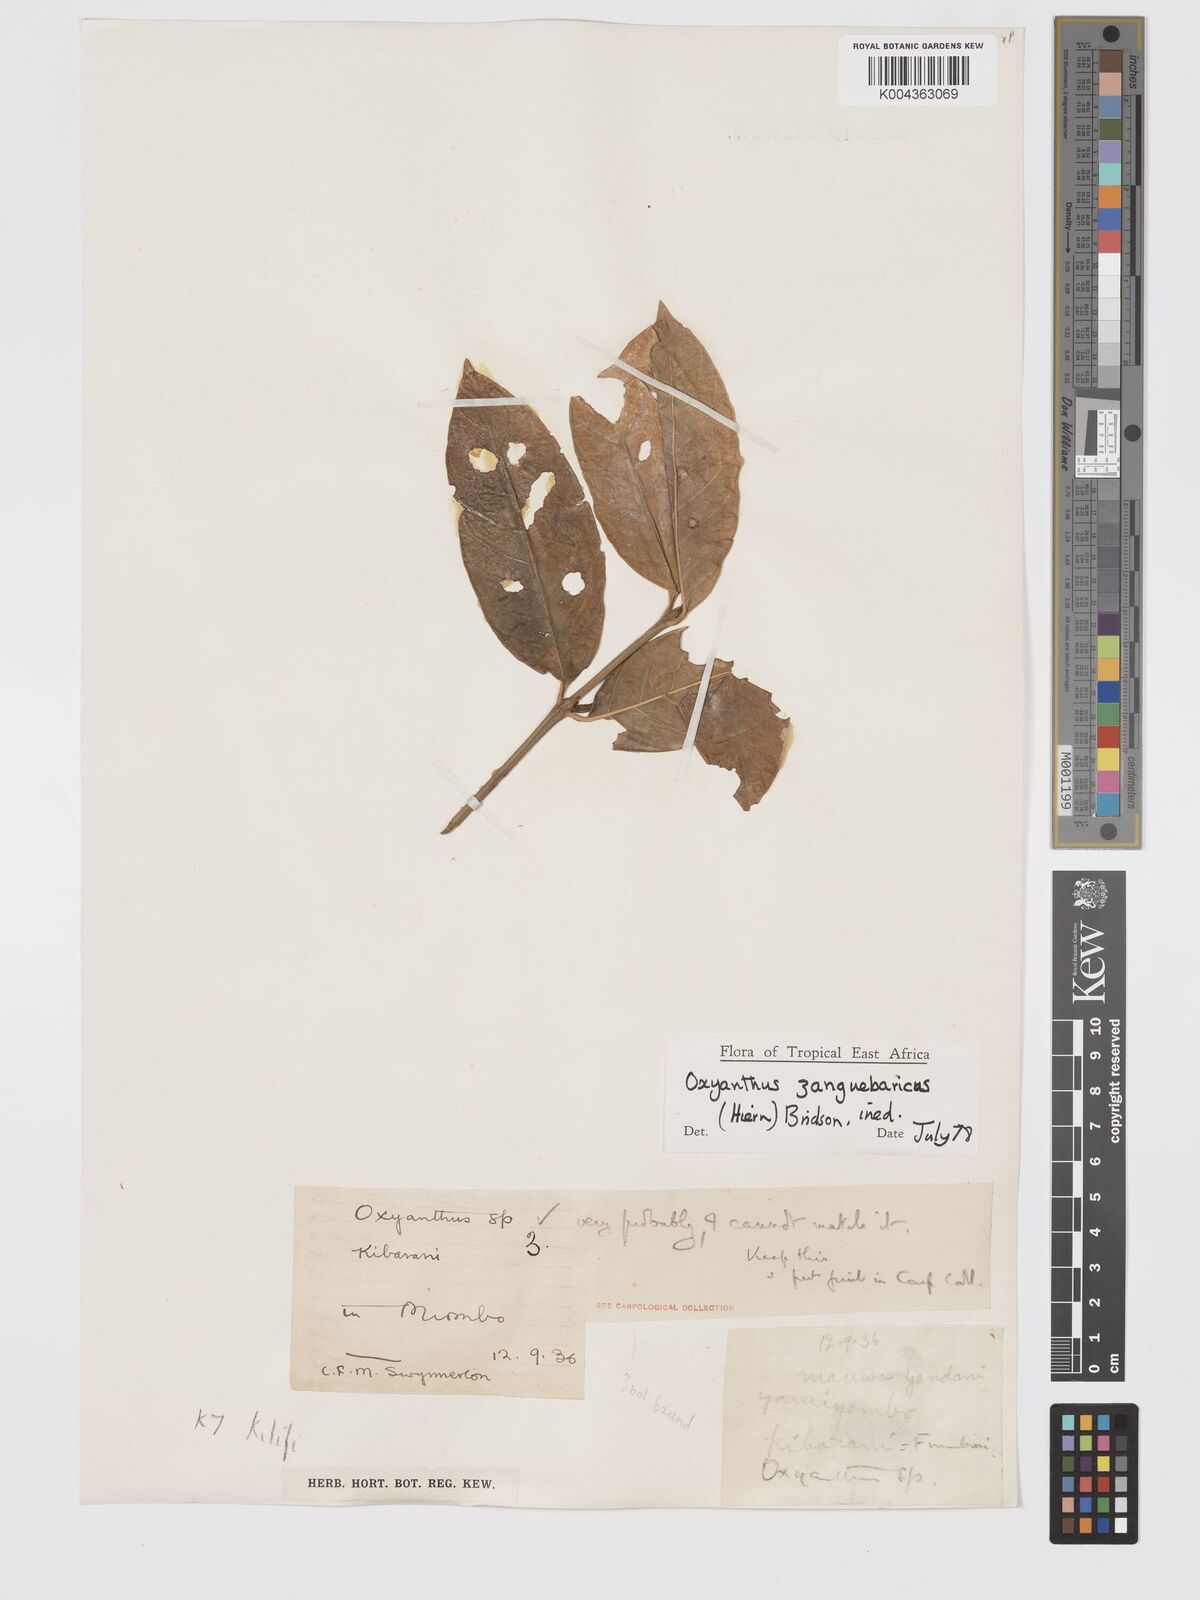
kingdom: Plantae
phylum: Tracheophyta
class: Magnoliopsida
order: Gentianales
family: Rubiaceae
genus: Oxyanthus
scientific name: Oxyanthus zanguebaricus
